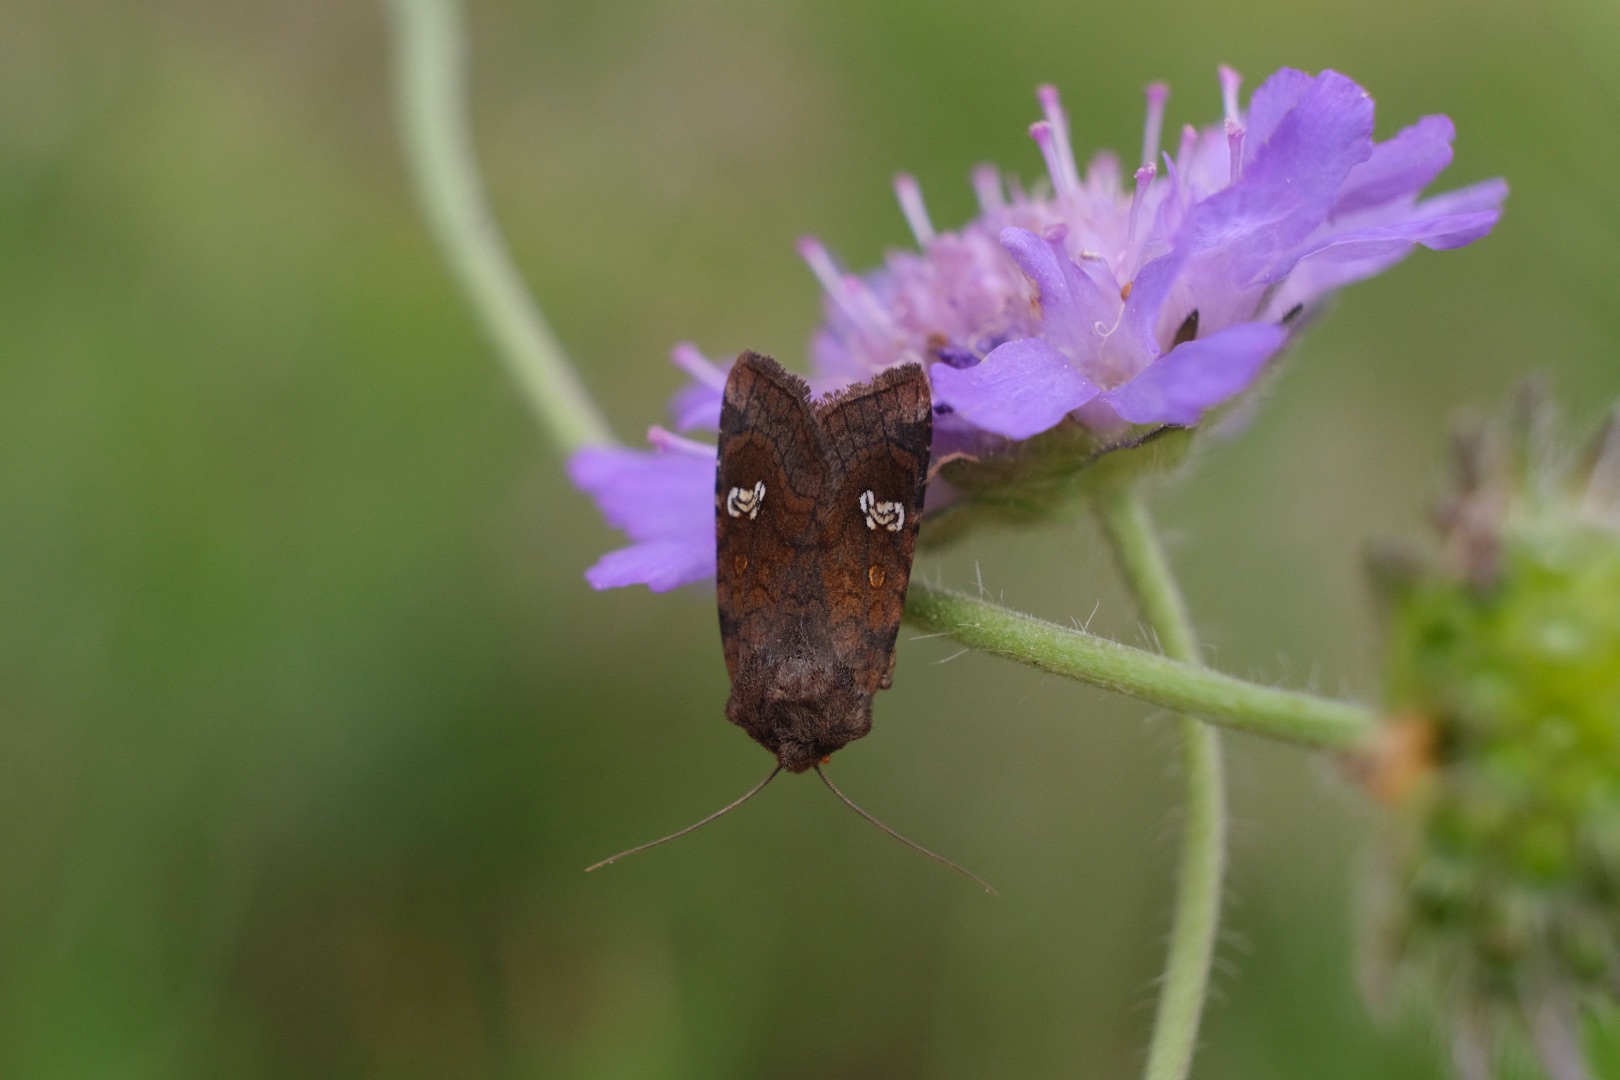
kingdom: Animalia
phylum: Arthropoda
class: Insecta
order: Lepidoptera
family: Noctuidae
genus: Amphipoea
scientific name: Amphipoea oculea
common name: Øje-græsugle
